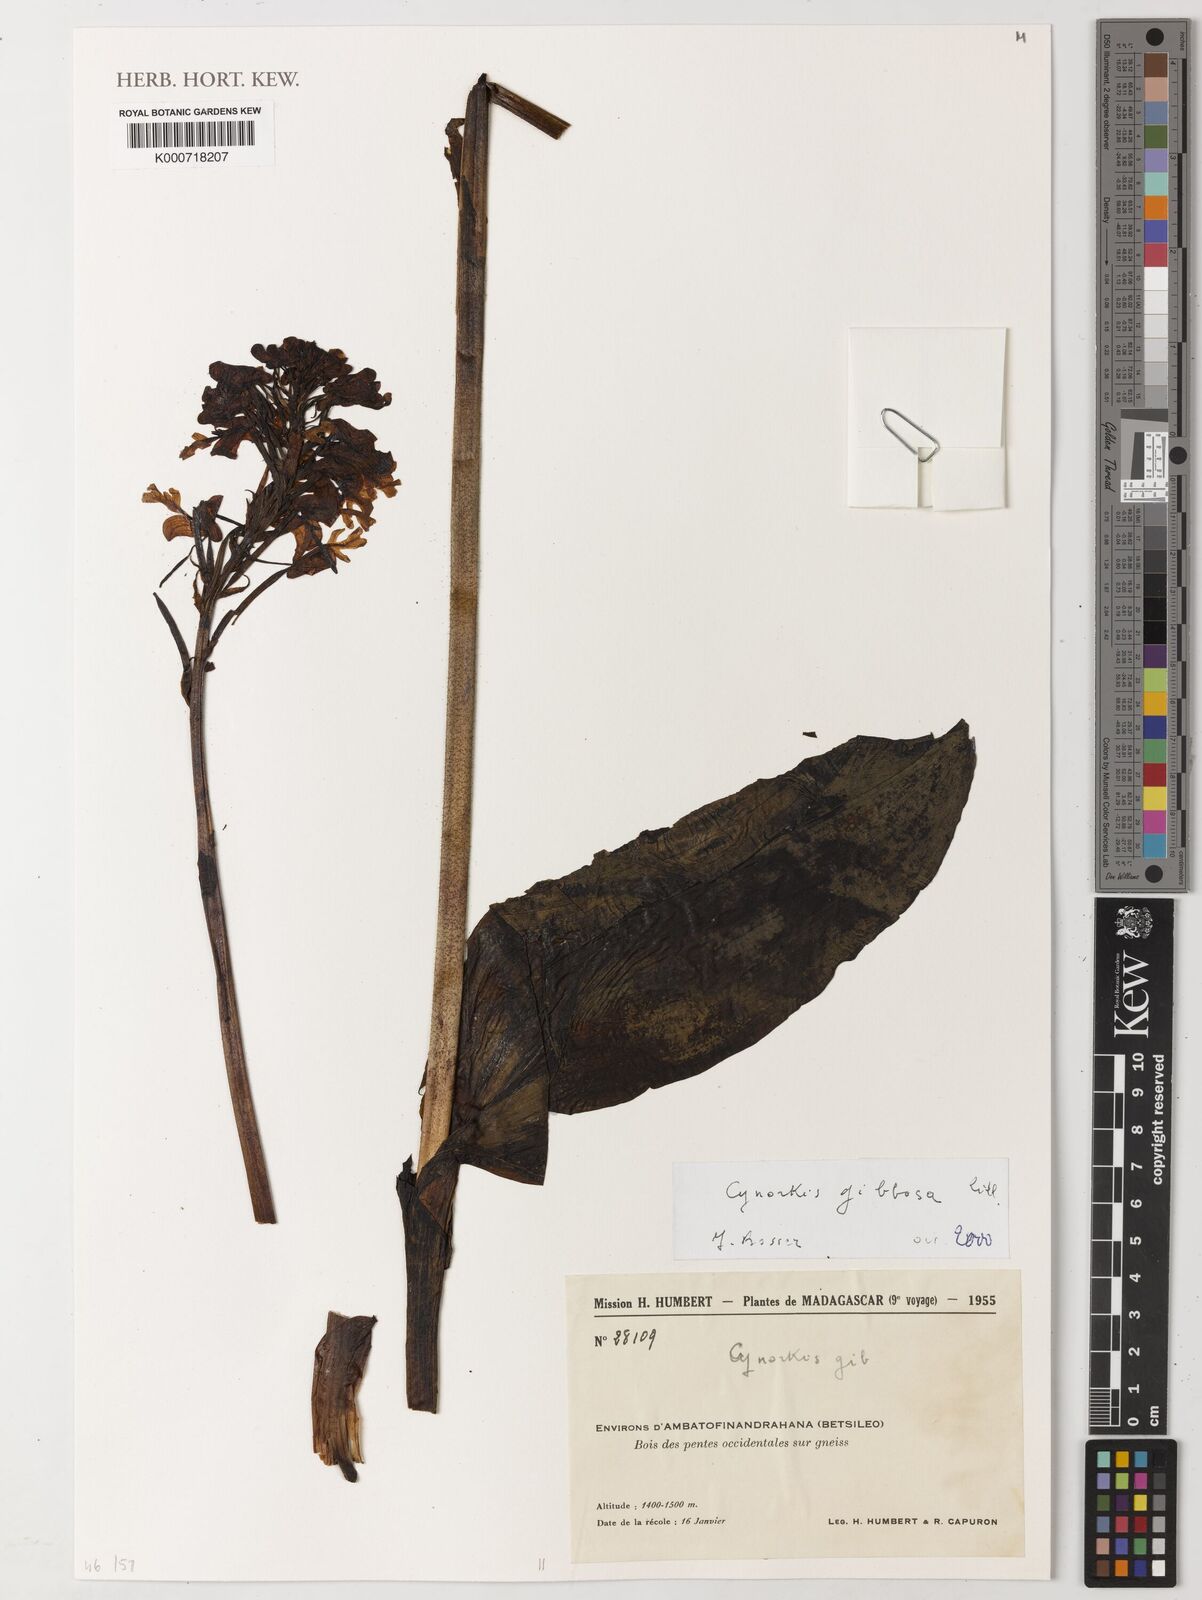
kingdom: Plantae
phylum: Tracheophyta
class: Liliopsida
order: Asparagales
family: Orchidaceae
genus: Cynorkis
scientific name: Cynorkis gibbosa
